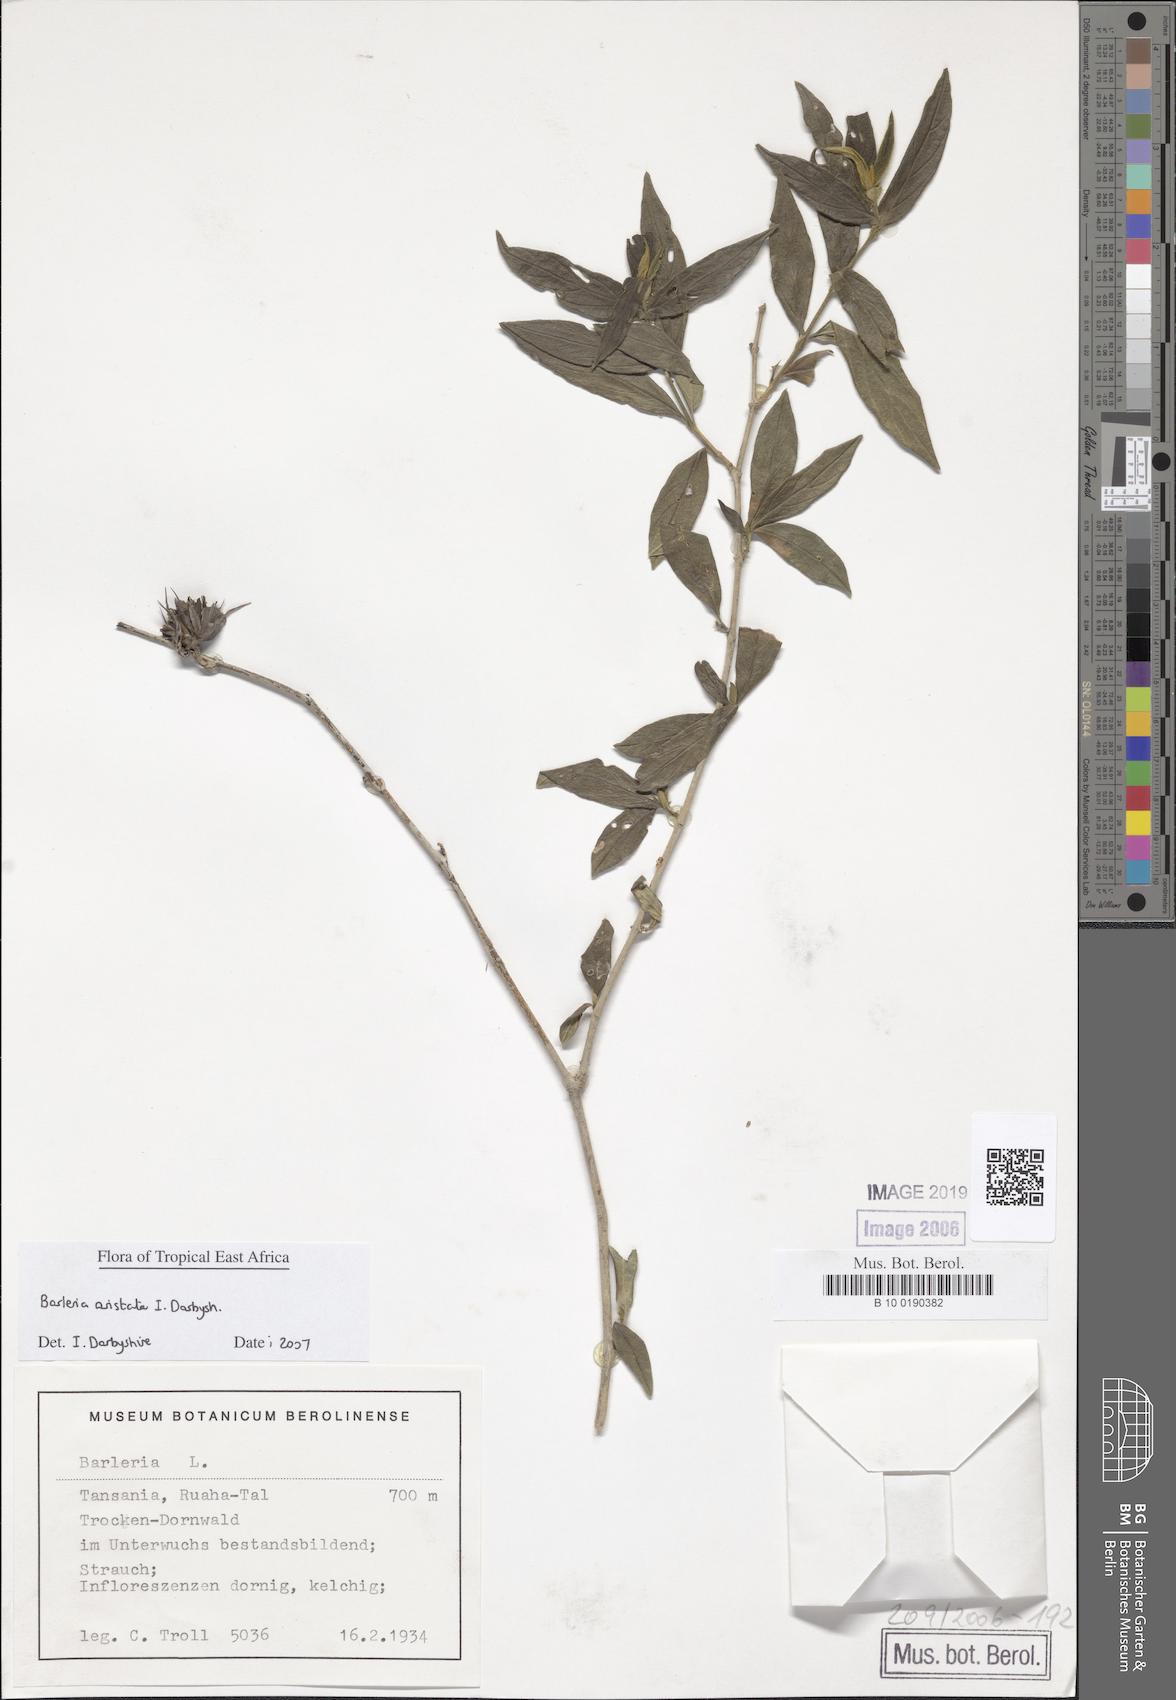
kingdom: Plantae
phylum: Tracheophyta
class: Magnoliopsida
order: Lamiales
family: Acanthaceae
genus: Barleria
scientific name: Barleria
